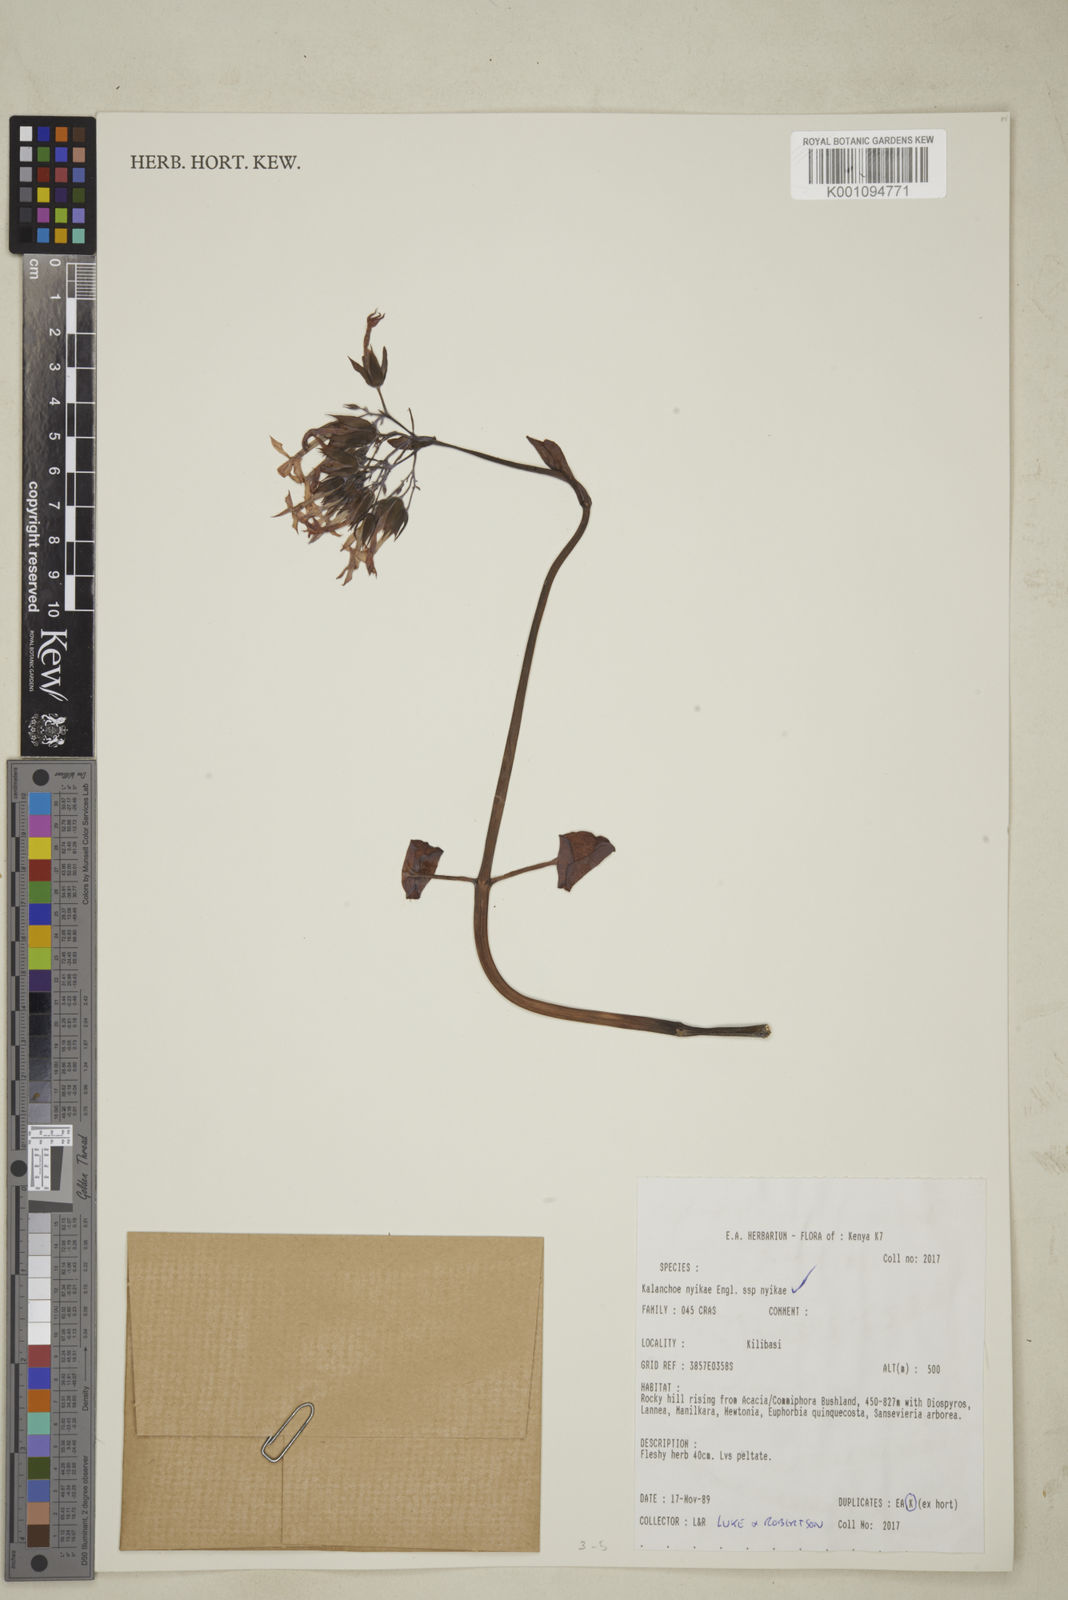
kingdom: Plantae
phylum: Tracheophyta
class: Magnoliopsida
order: Saxifragales
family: Crassulaceae
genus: Kalanchoe
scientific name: Kalanchoe nyikae
